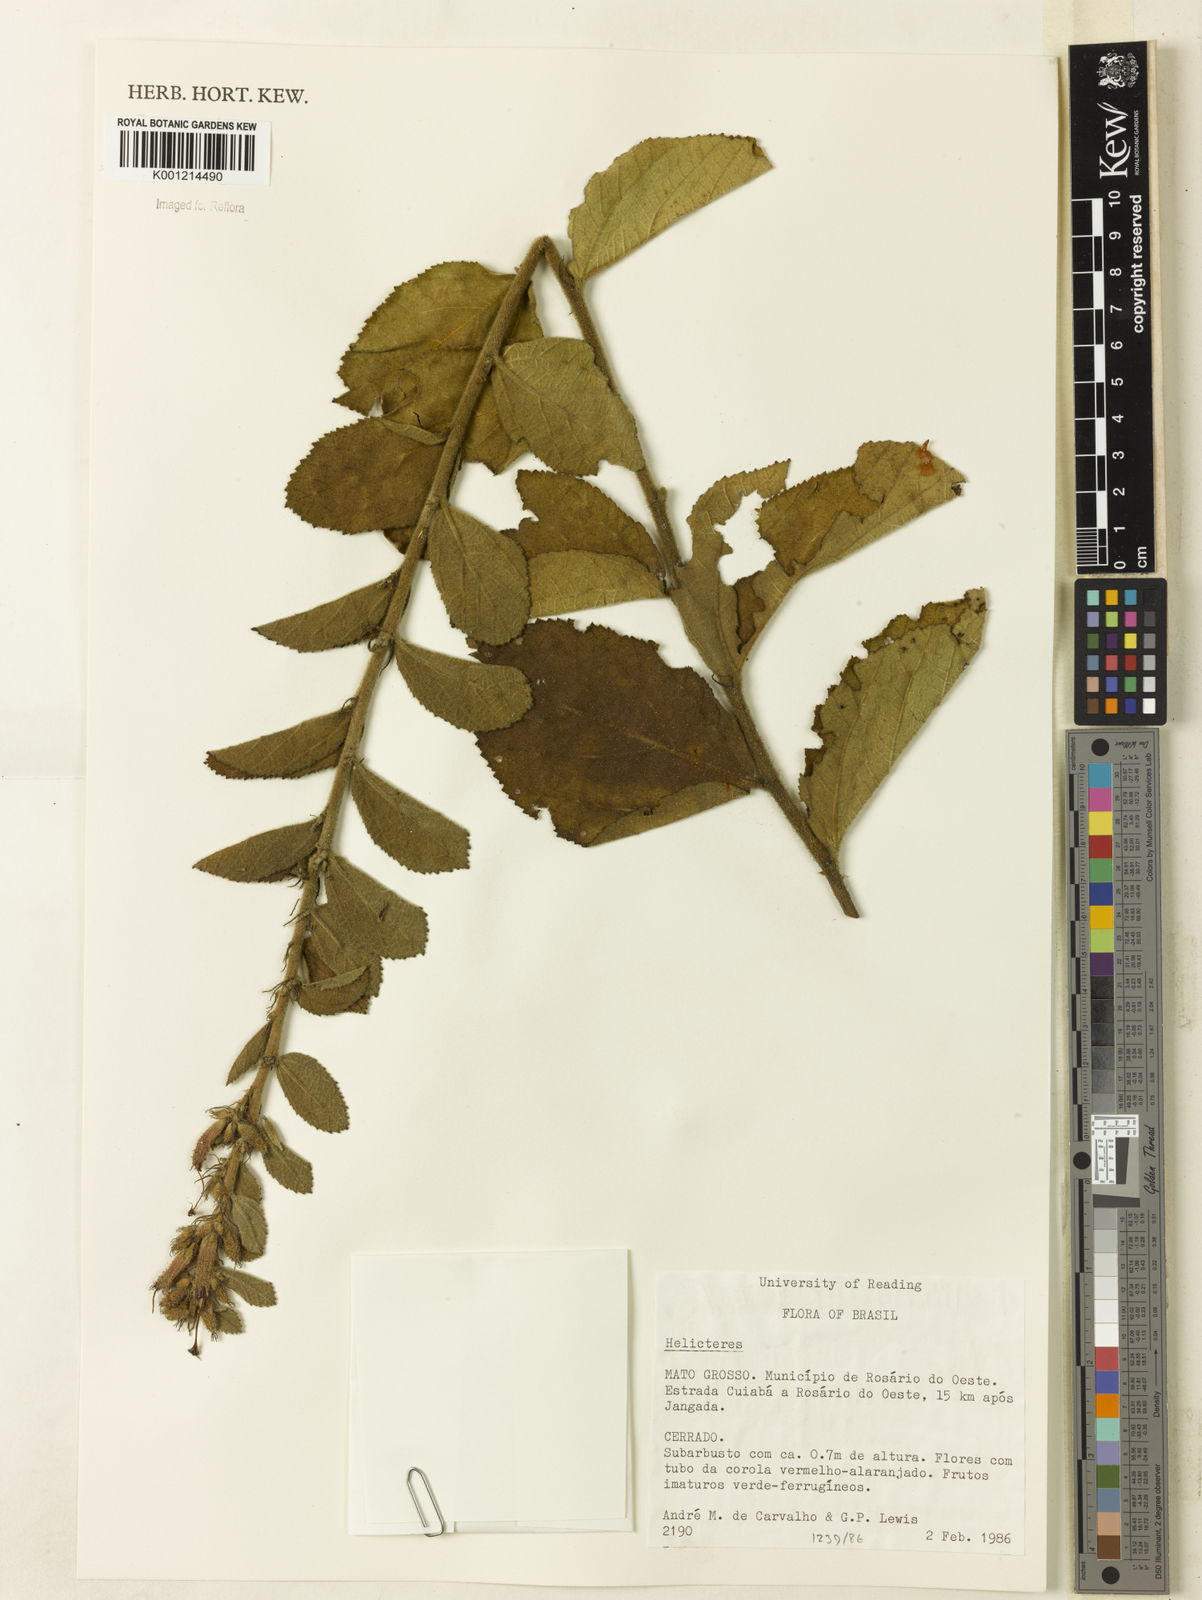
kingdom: Plantae
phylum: Tracheophyta
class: Magnoliopsida
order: Malvales
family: Malvaceae
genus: Helicteres
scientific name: Helicteres
